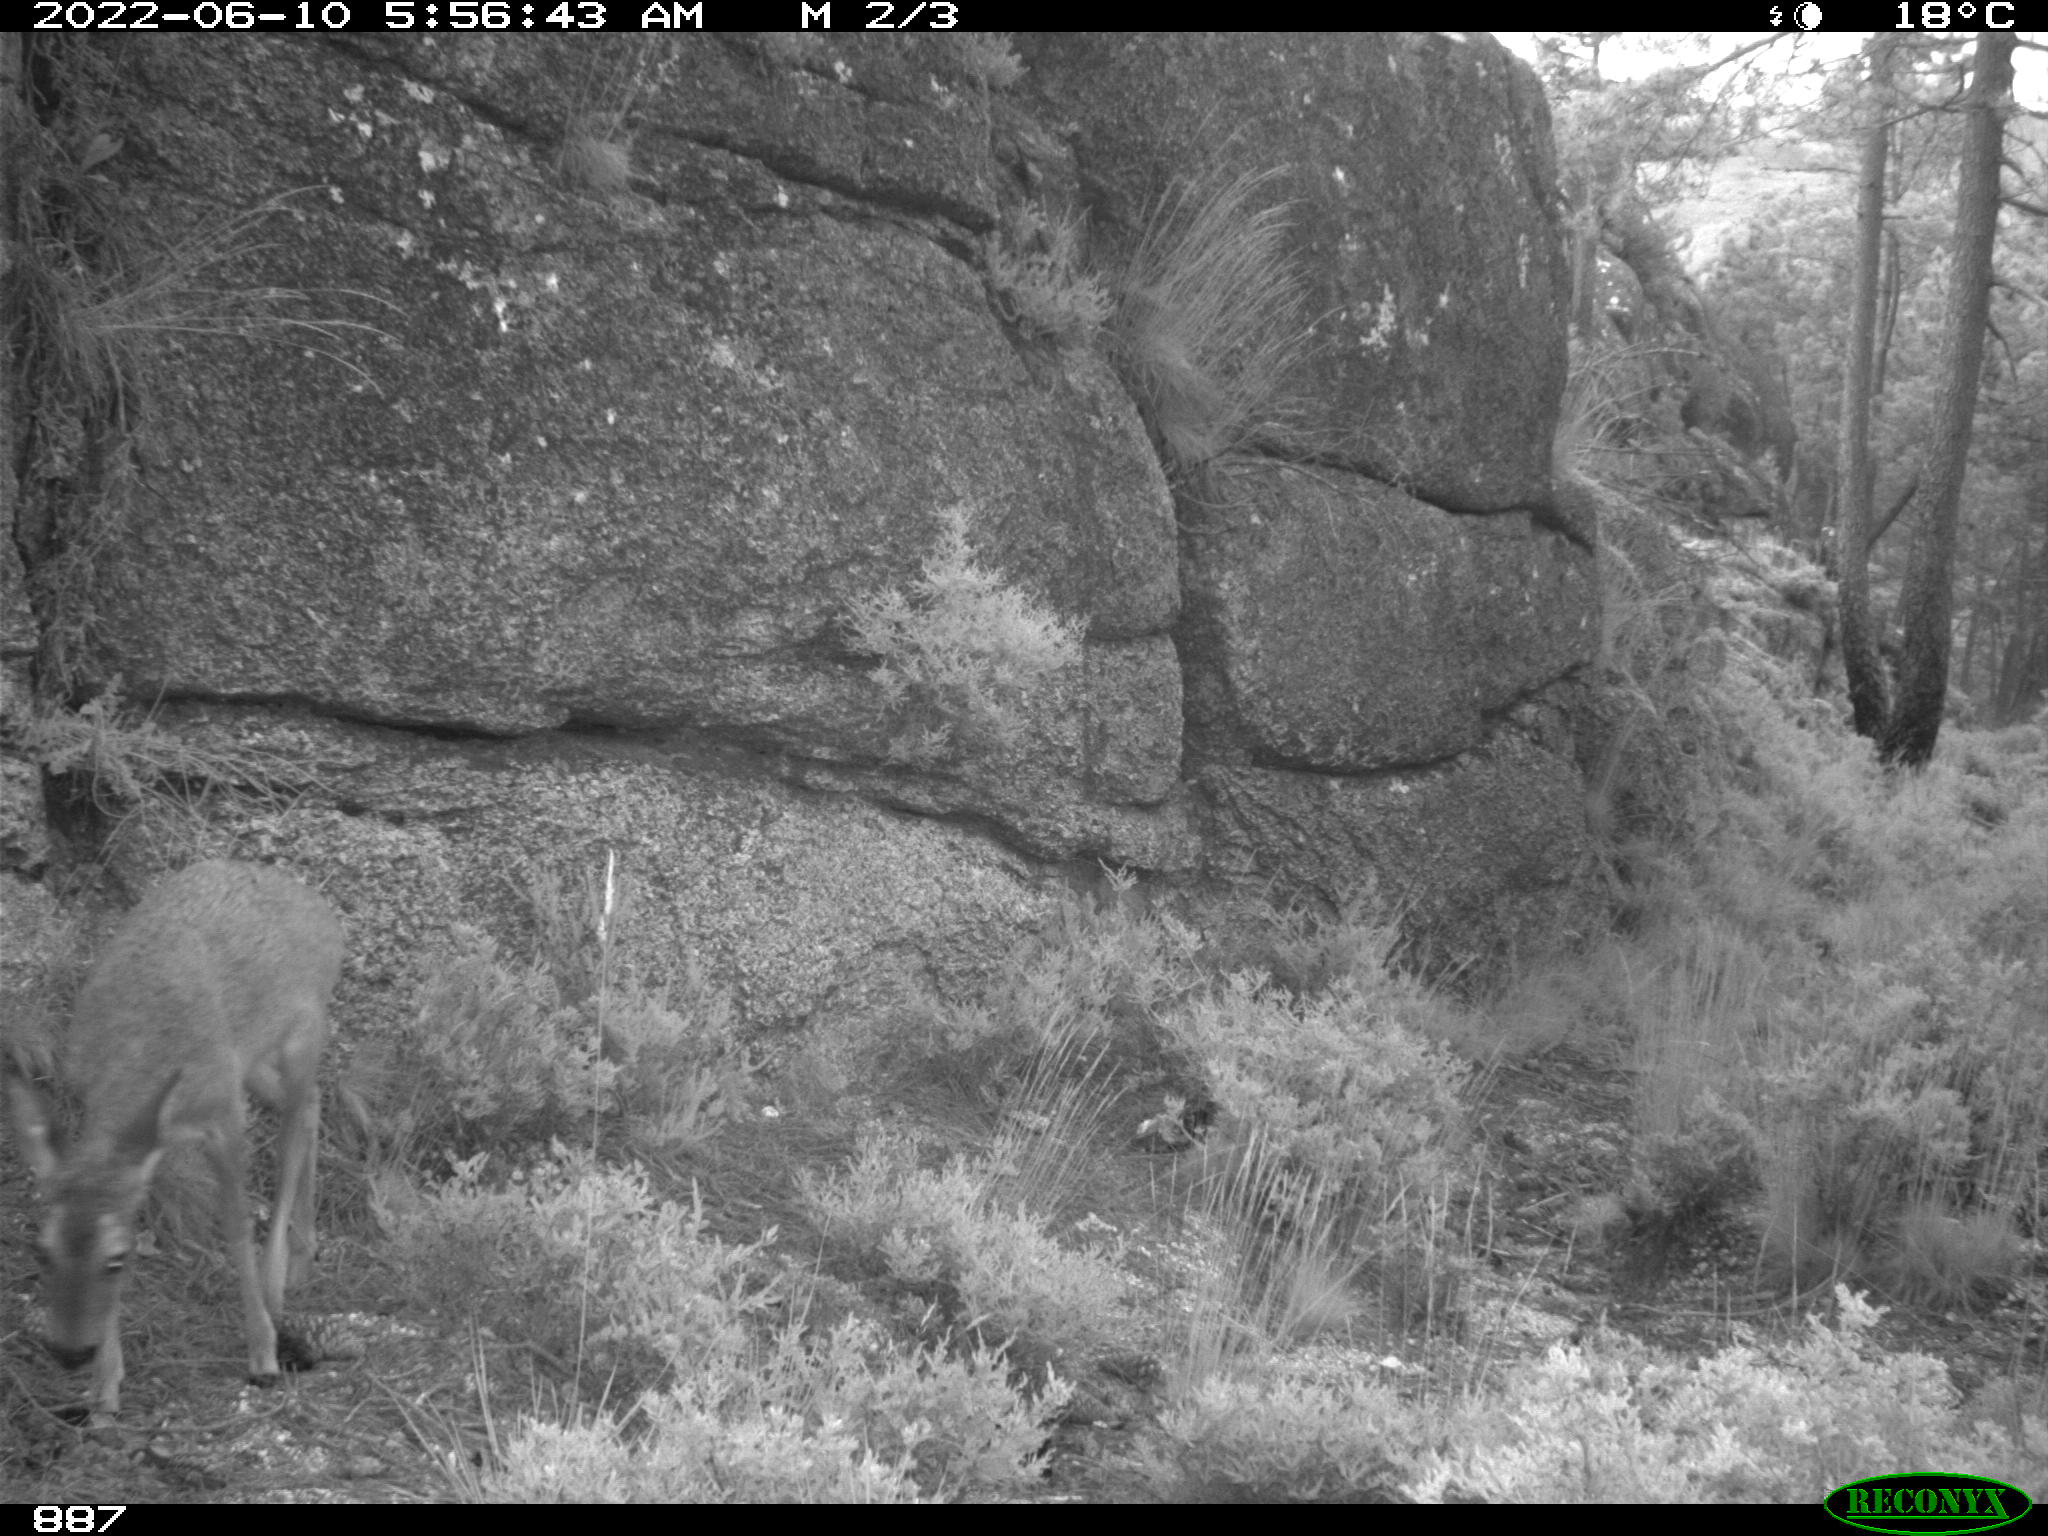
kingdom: Animalia
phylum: Chordata
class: Mammalia
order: Artiodactyla
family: Cervidae
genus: Capreolus
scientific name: Capreolus capreolus
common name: Western roe deer
